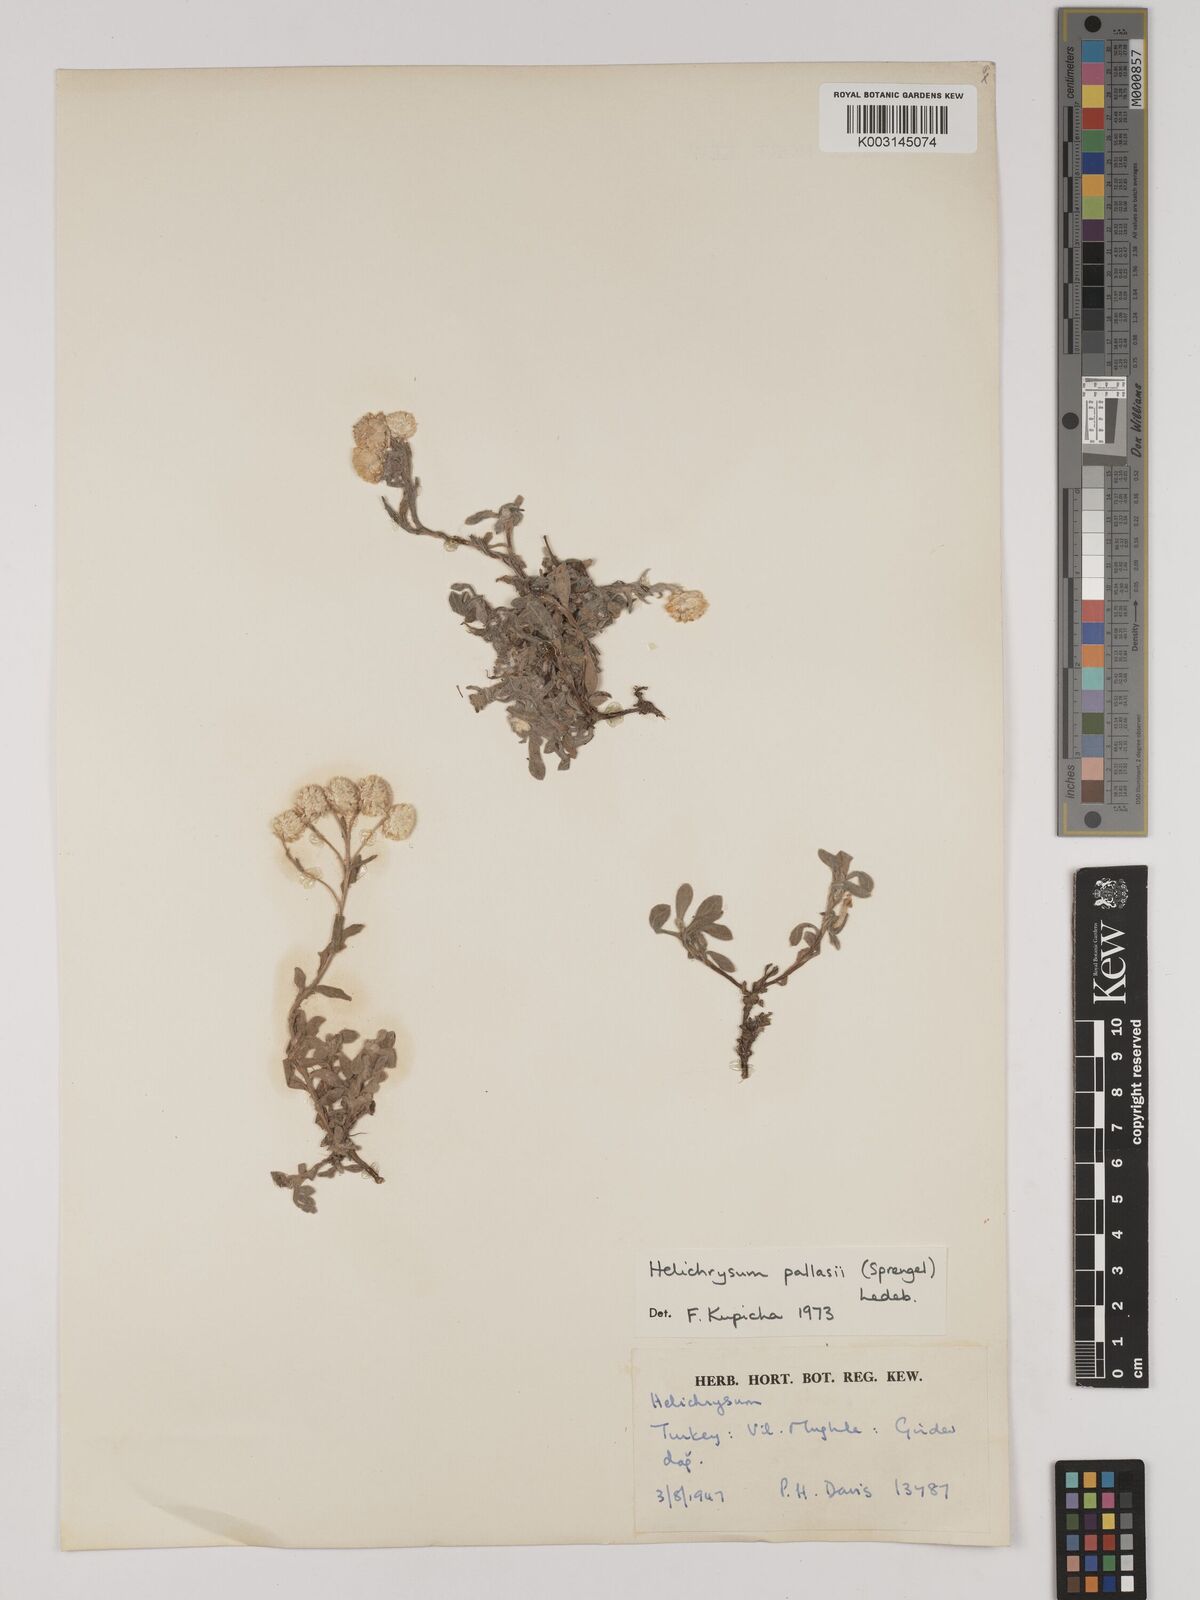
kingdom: Plantae
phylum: Tracheophyta
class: Magnoliopsida
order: Asterales
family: Asteraceae
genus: Helichrysum
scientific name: Helichrysum pallasii
